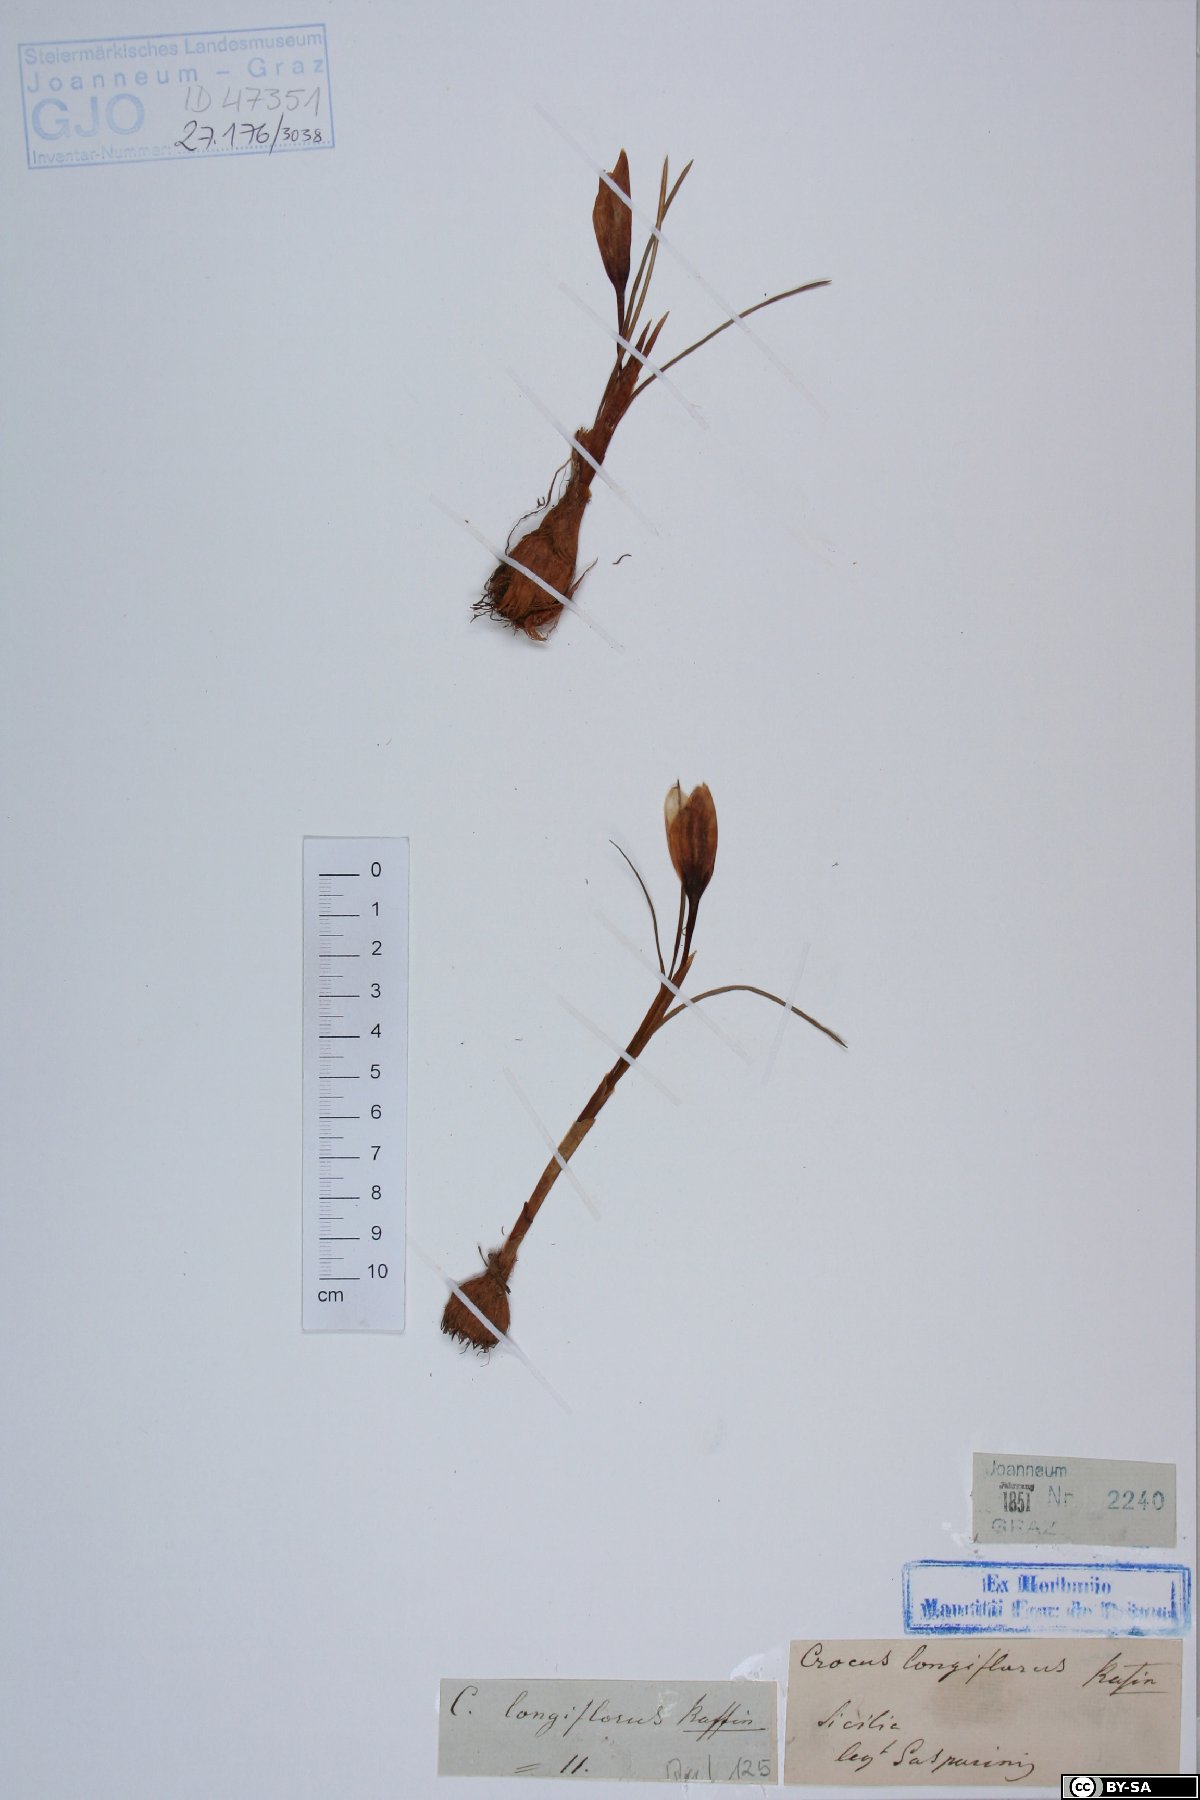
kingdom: Plantae
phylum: Tracheophyta
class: Liliopsida
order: Asparagales
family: Iridaceae
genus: Crocus
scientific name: Crocus longiflorus
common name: Italian crocus
